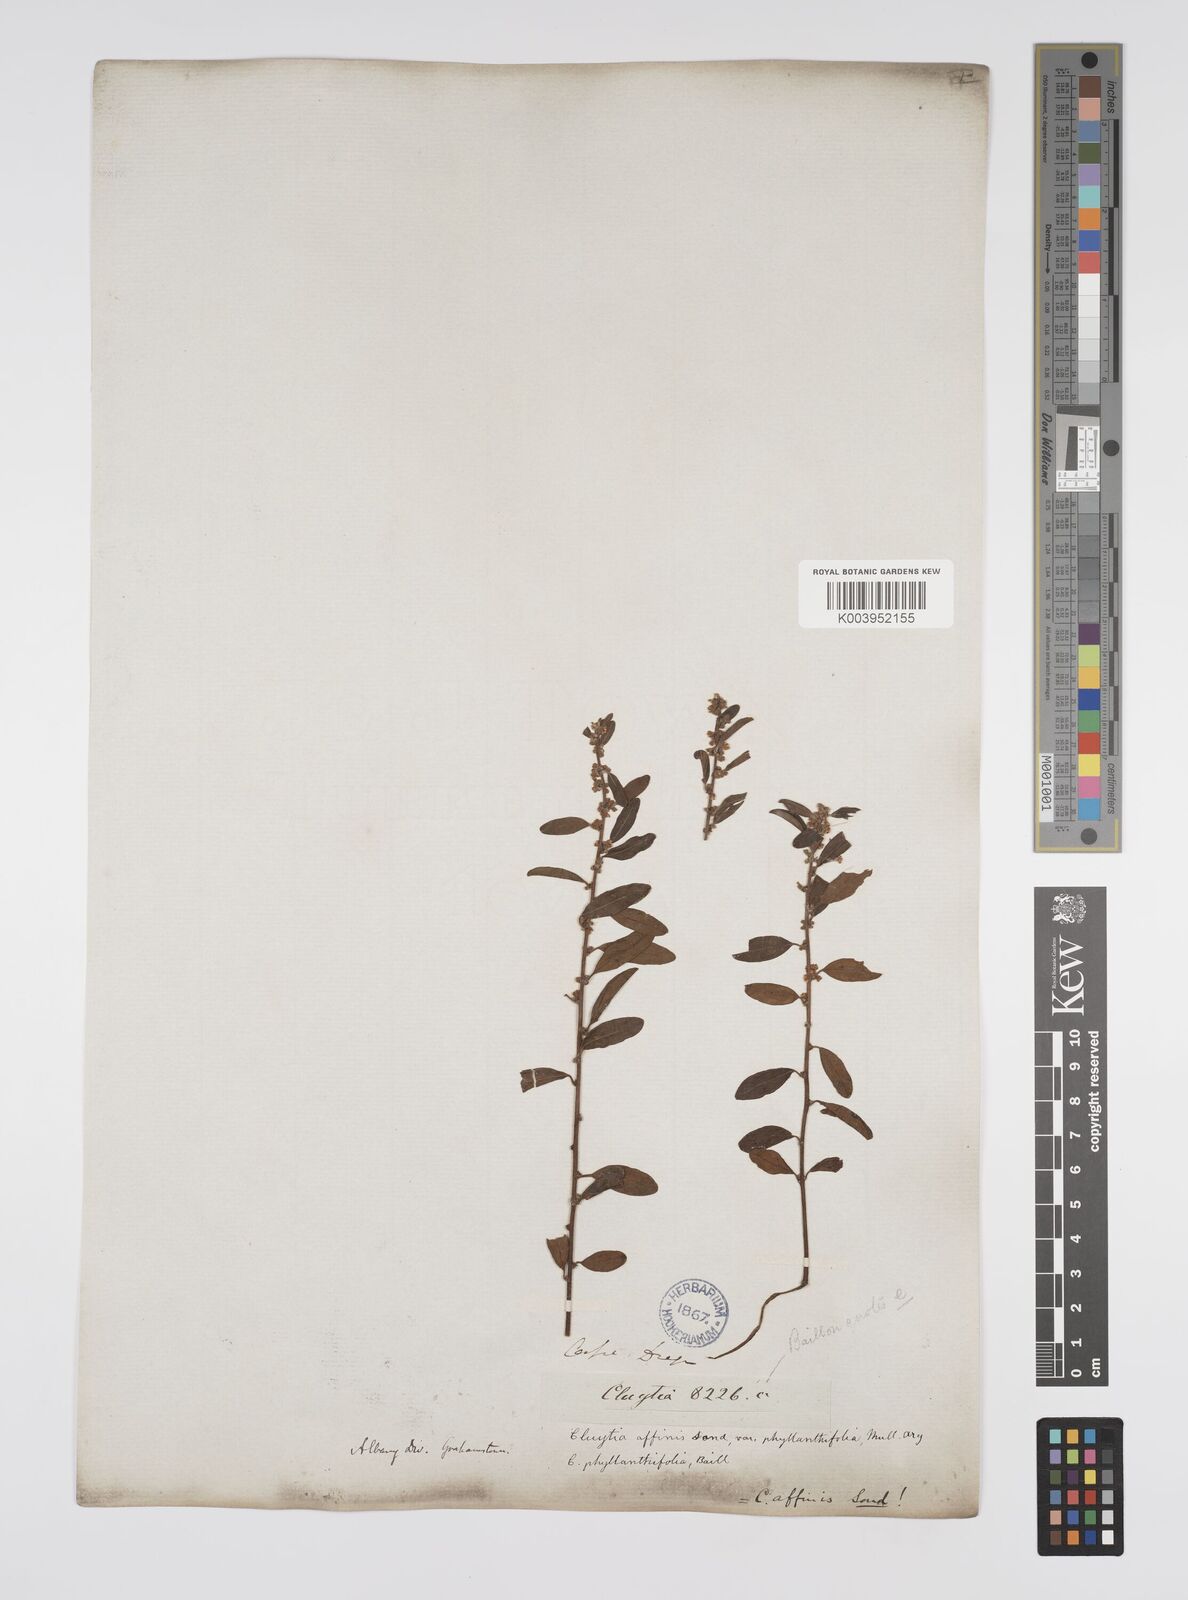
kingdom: Plantae
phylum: Tracheophyta
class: Magnoliopsida
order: Malpighiales
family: Peraceae
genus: Clutia
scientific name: Clutia affinis
